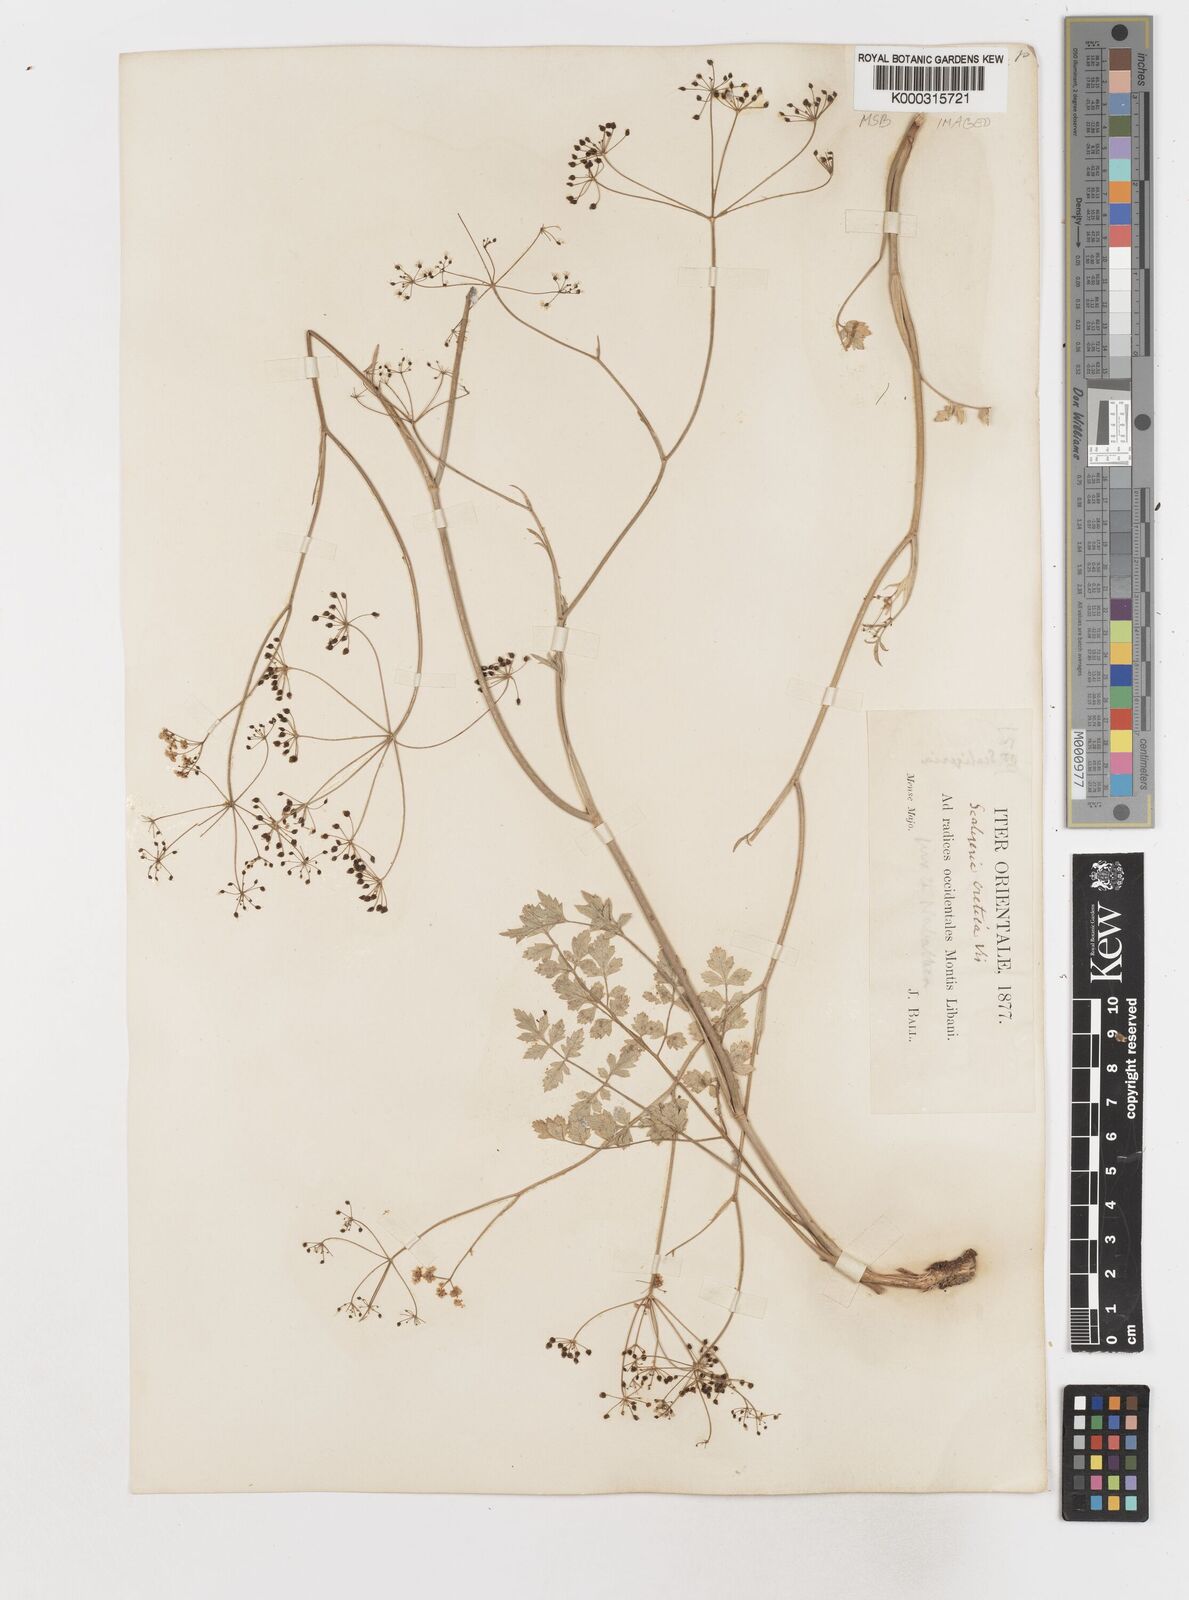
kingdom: Plantae
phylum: Tracheophyta
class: Magnoliopsida
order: Apiales
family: Apiaceae
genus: Scaligeria
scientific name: Scaligeria
